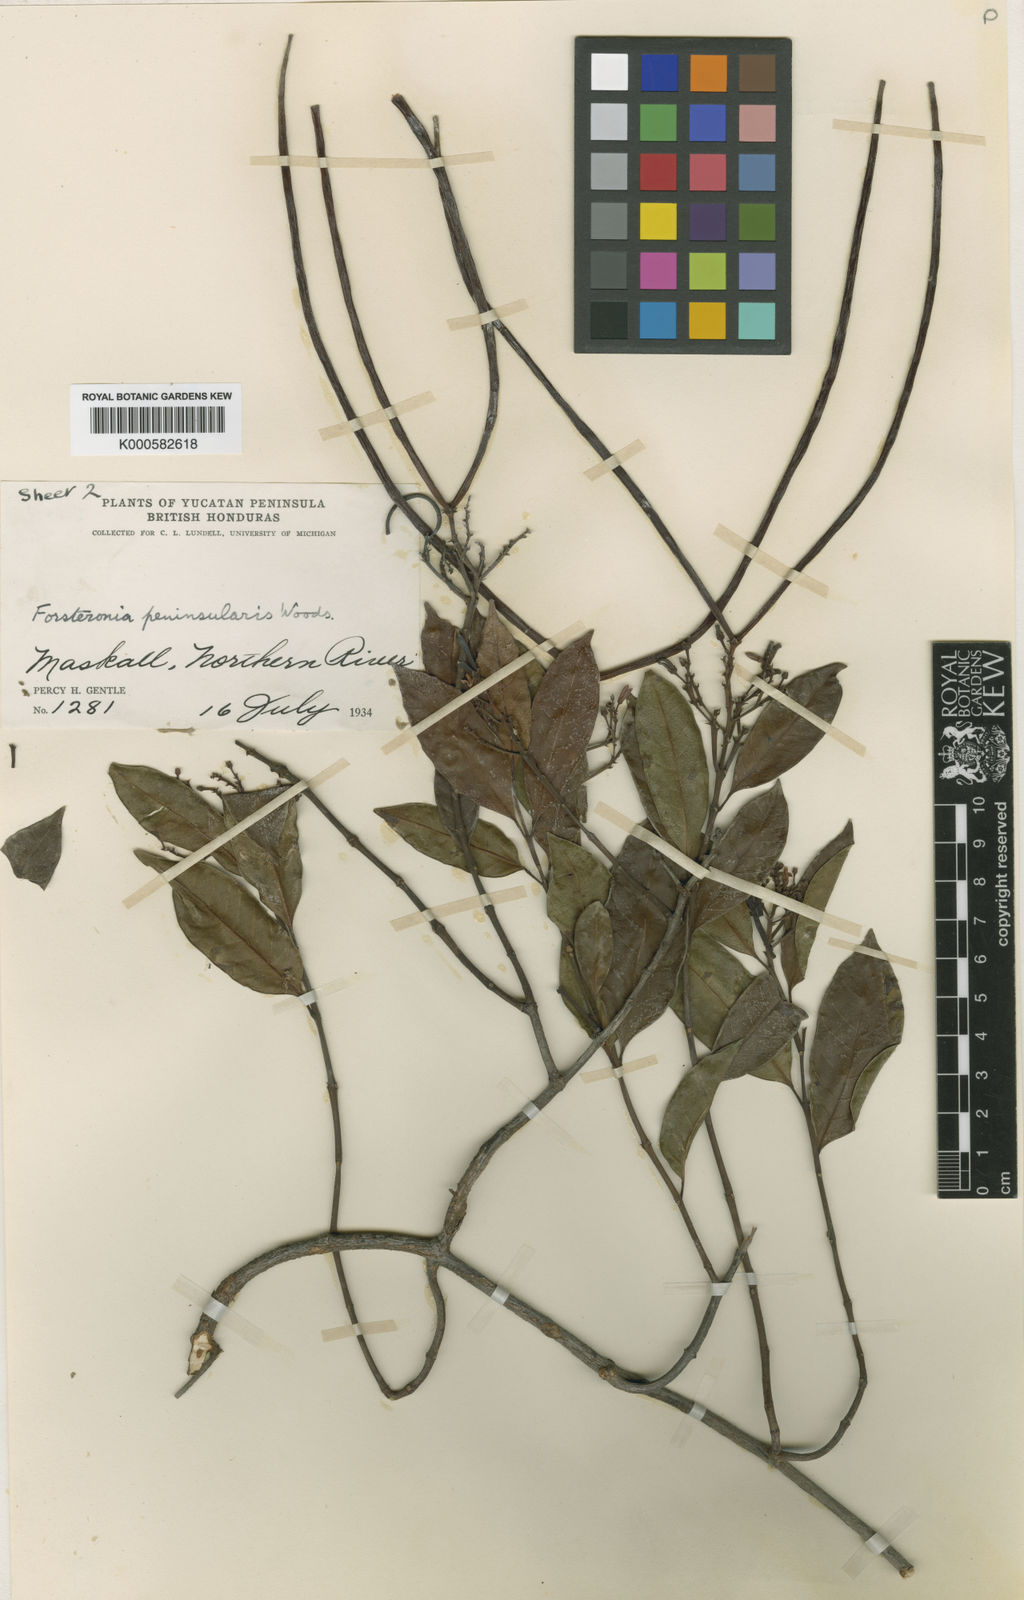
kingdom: Plantae
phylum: Tracheophyta
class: Magnoliopsida
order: Gentianales
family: Apocynaceae
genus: Pinochia
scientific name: Pinochia peninsularis
